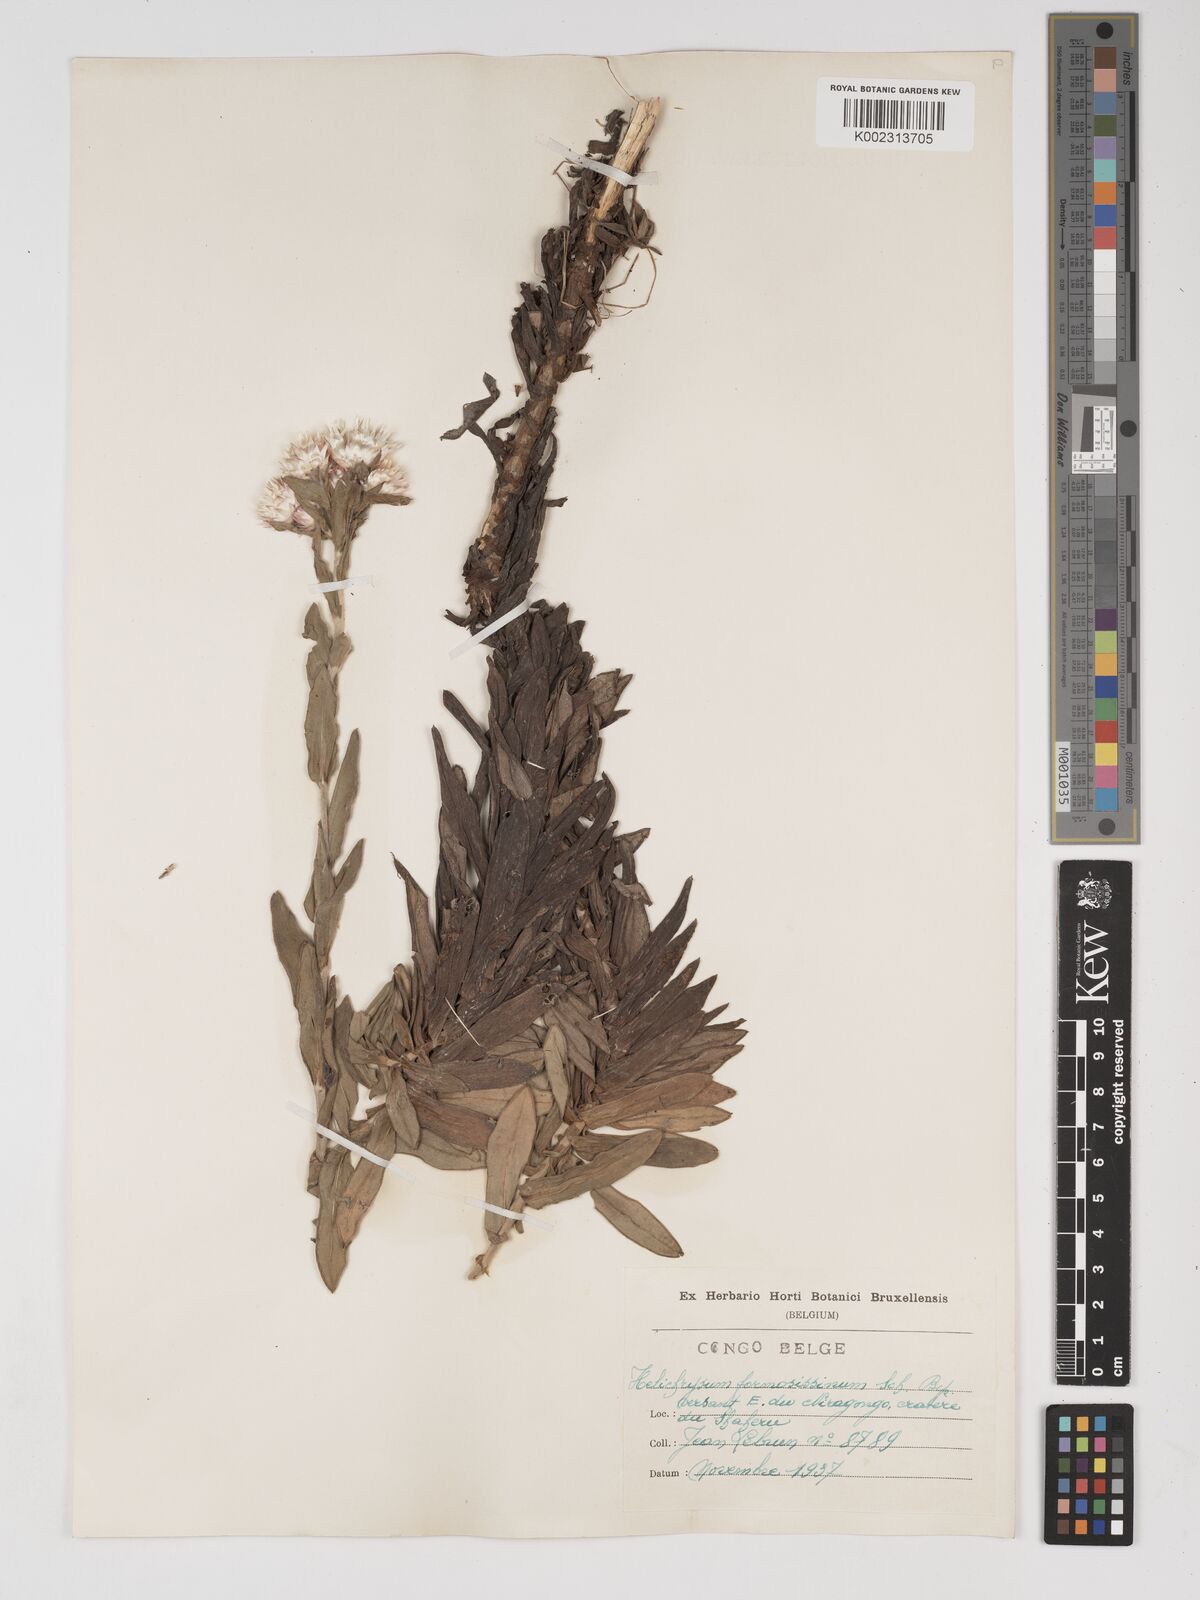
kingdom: Plantae
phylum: Tracheophyta
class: Magnoliopsida
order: Asterales
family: Asteraceae
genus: Helichrysum
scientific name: Helichrysum formosissimum
